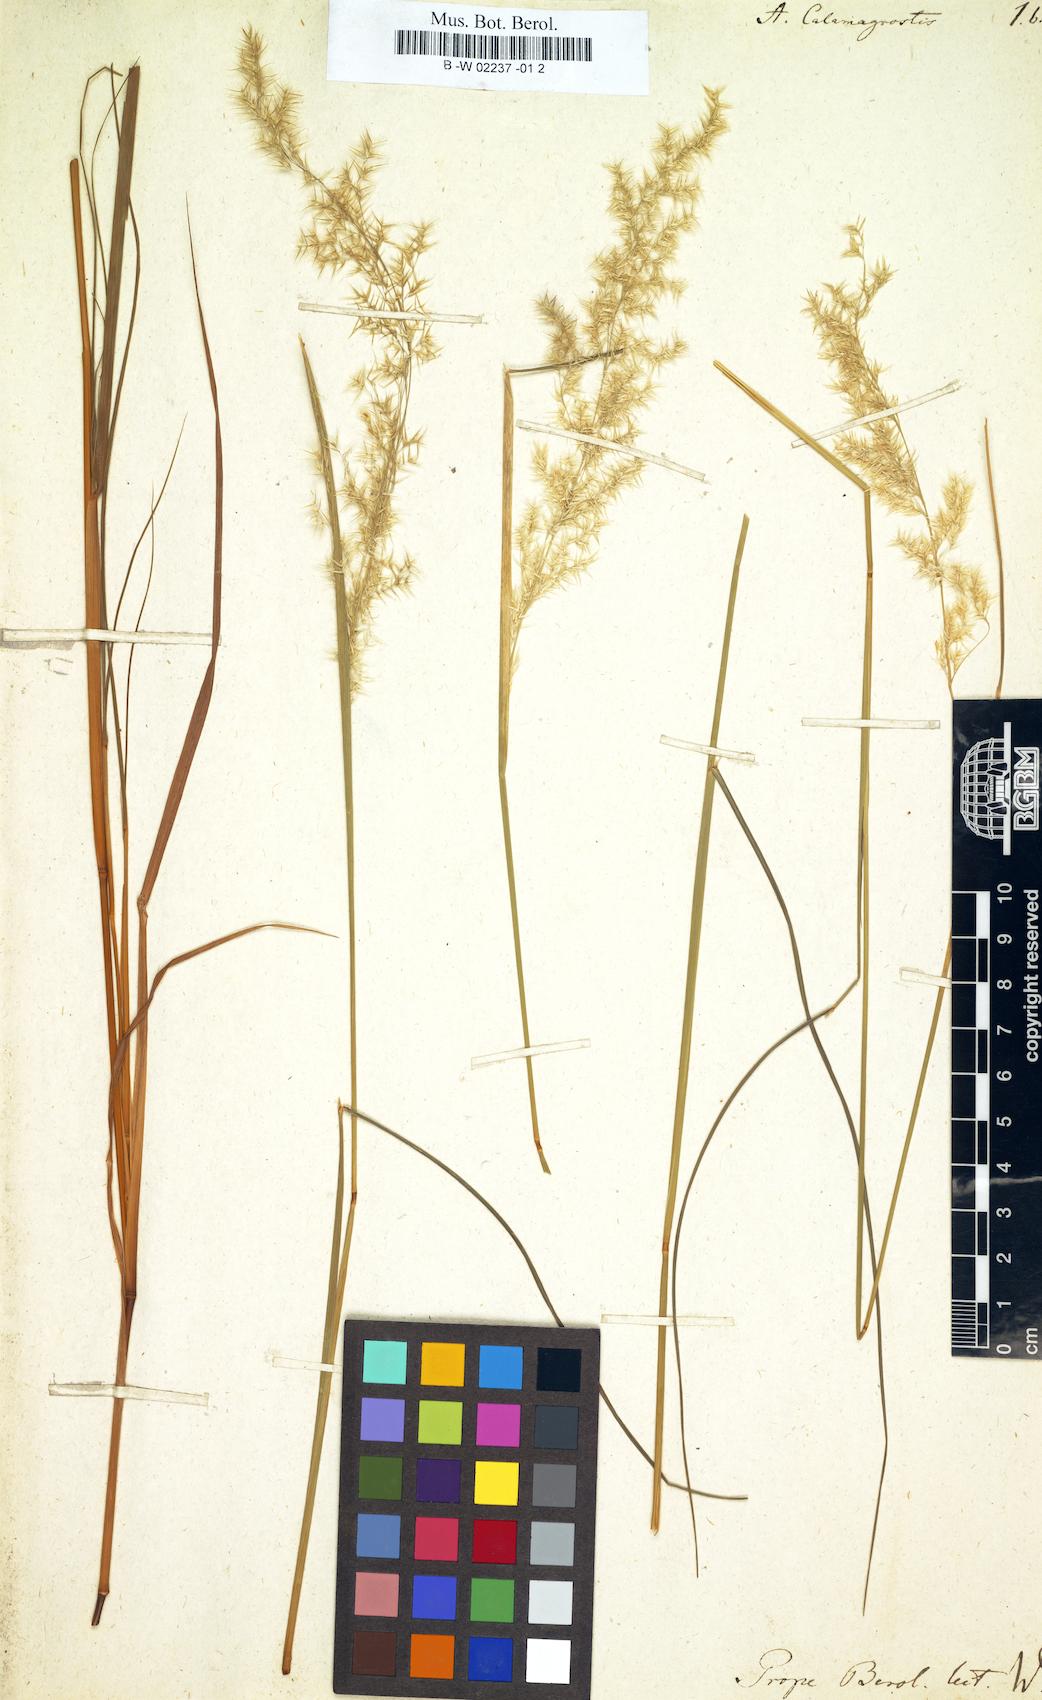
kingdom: Plantae
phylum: Tracheophyta
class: Liliopsida
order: Poales
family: Poaceae
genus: Arundo
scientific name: Arundo calamagrostis
